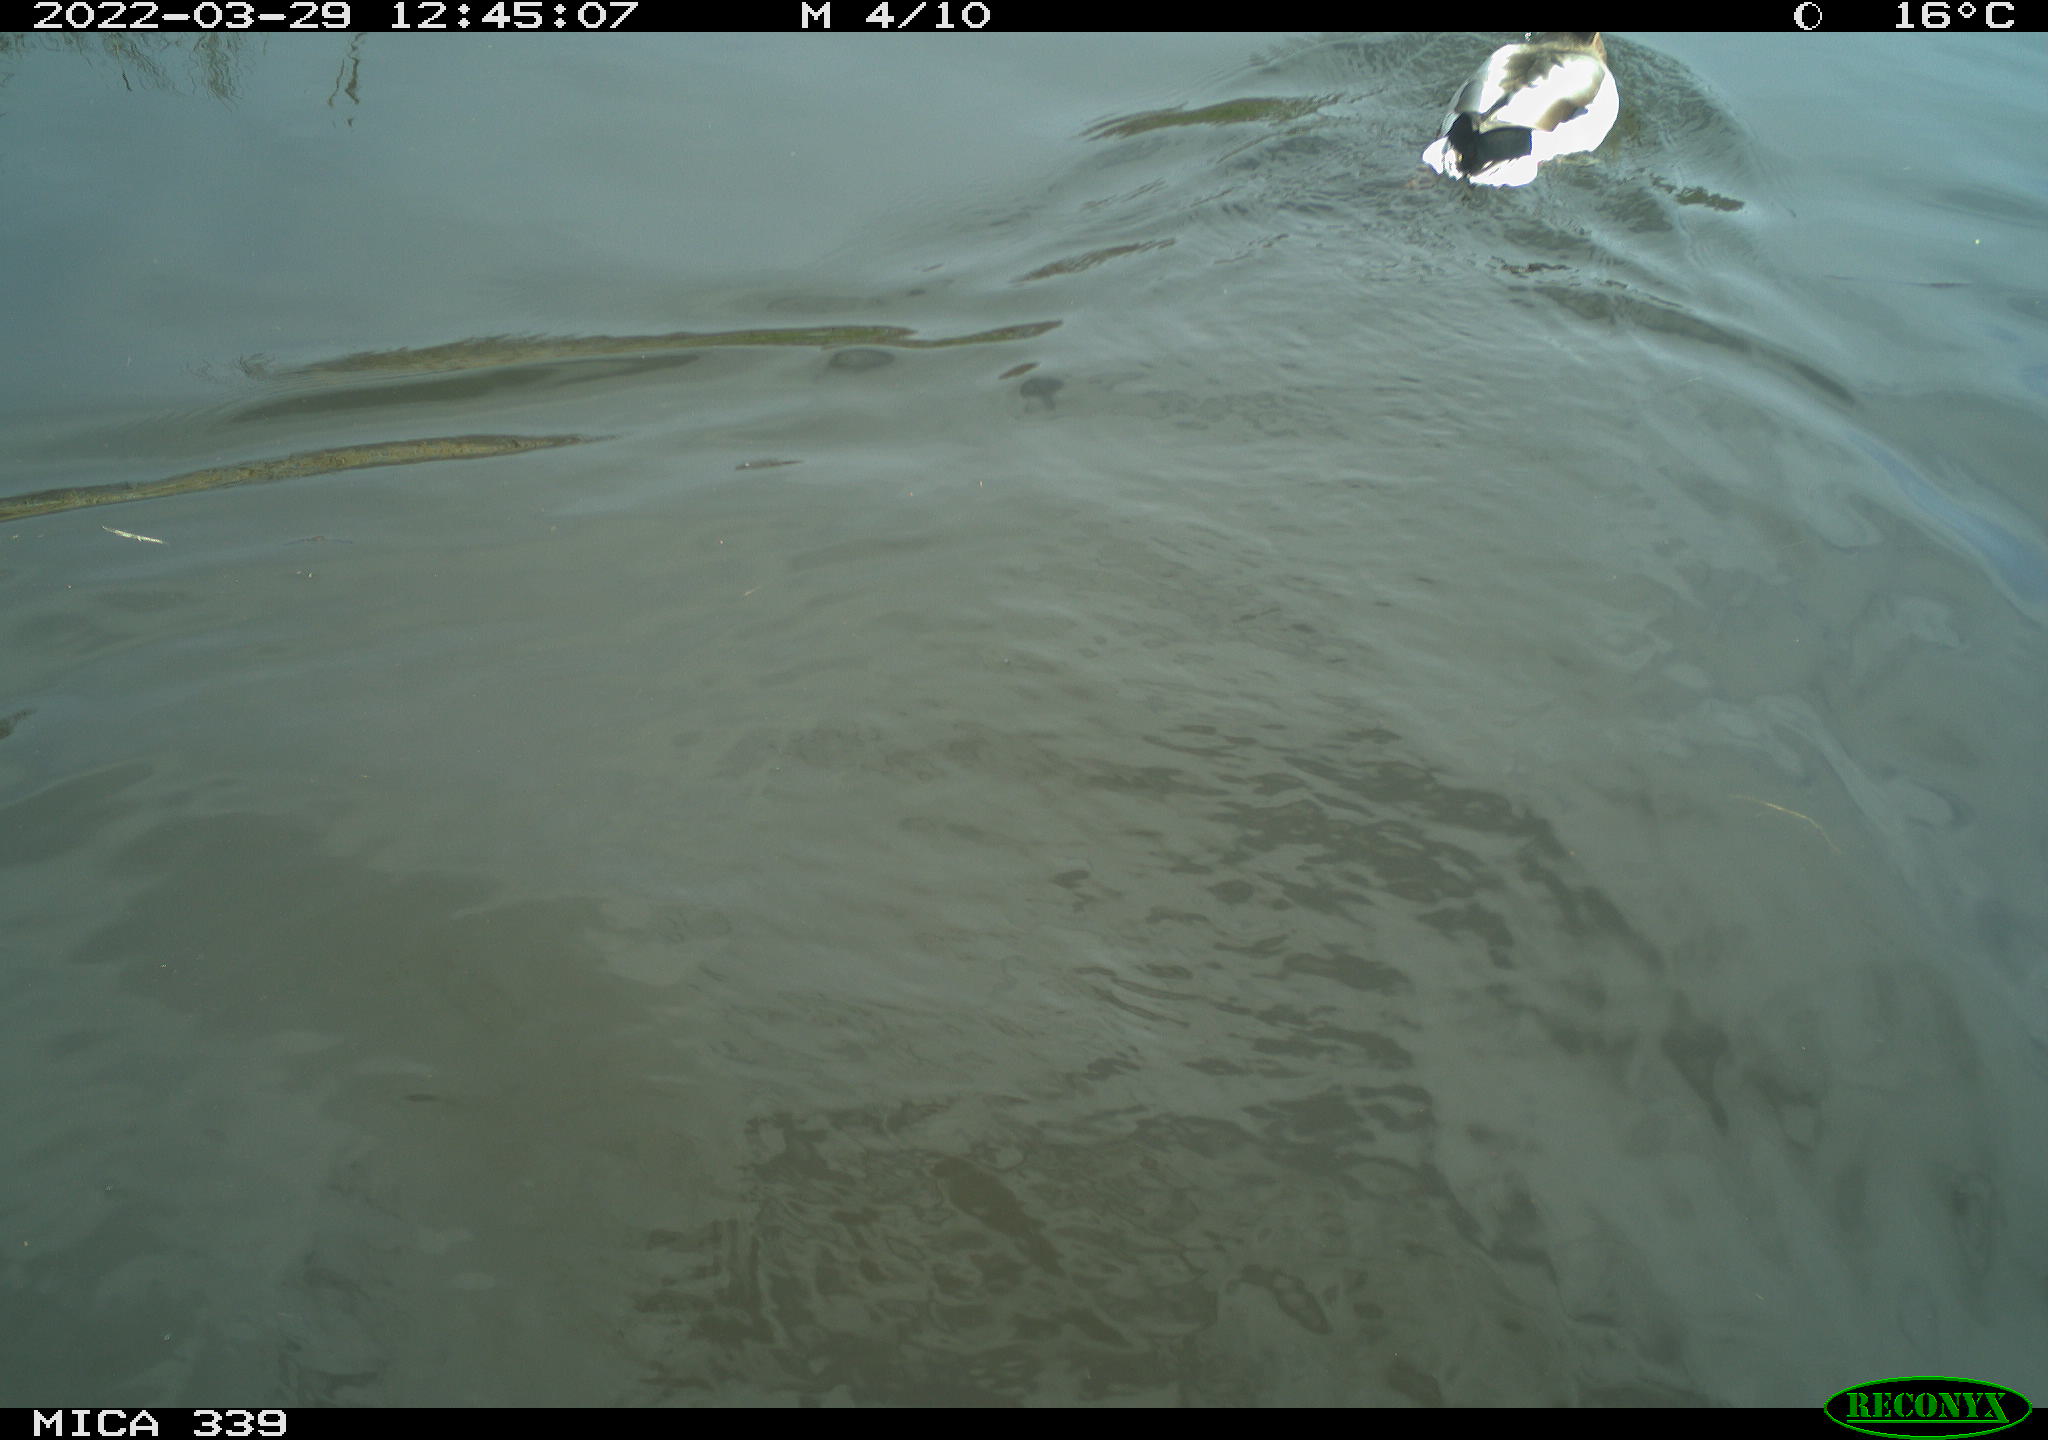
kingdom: Animalia
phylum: Chordata
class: Aves
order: Anseriformes
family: Anatidae
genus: Anas
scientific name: Anas platyrhynchos
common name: Mallard
